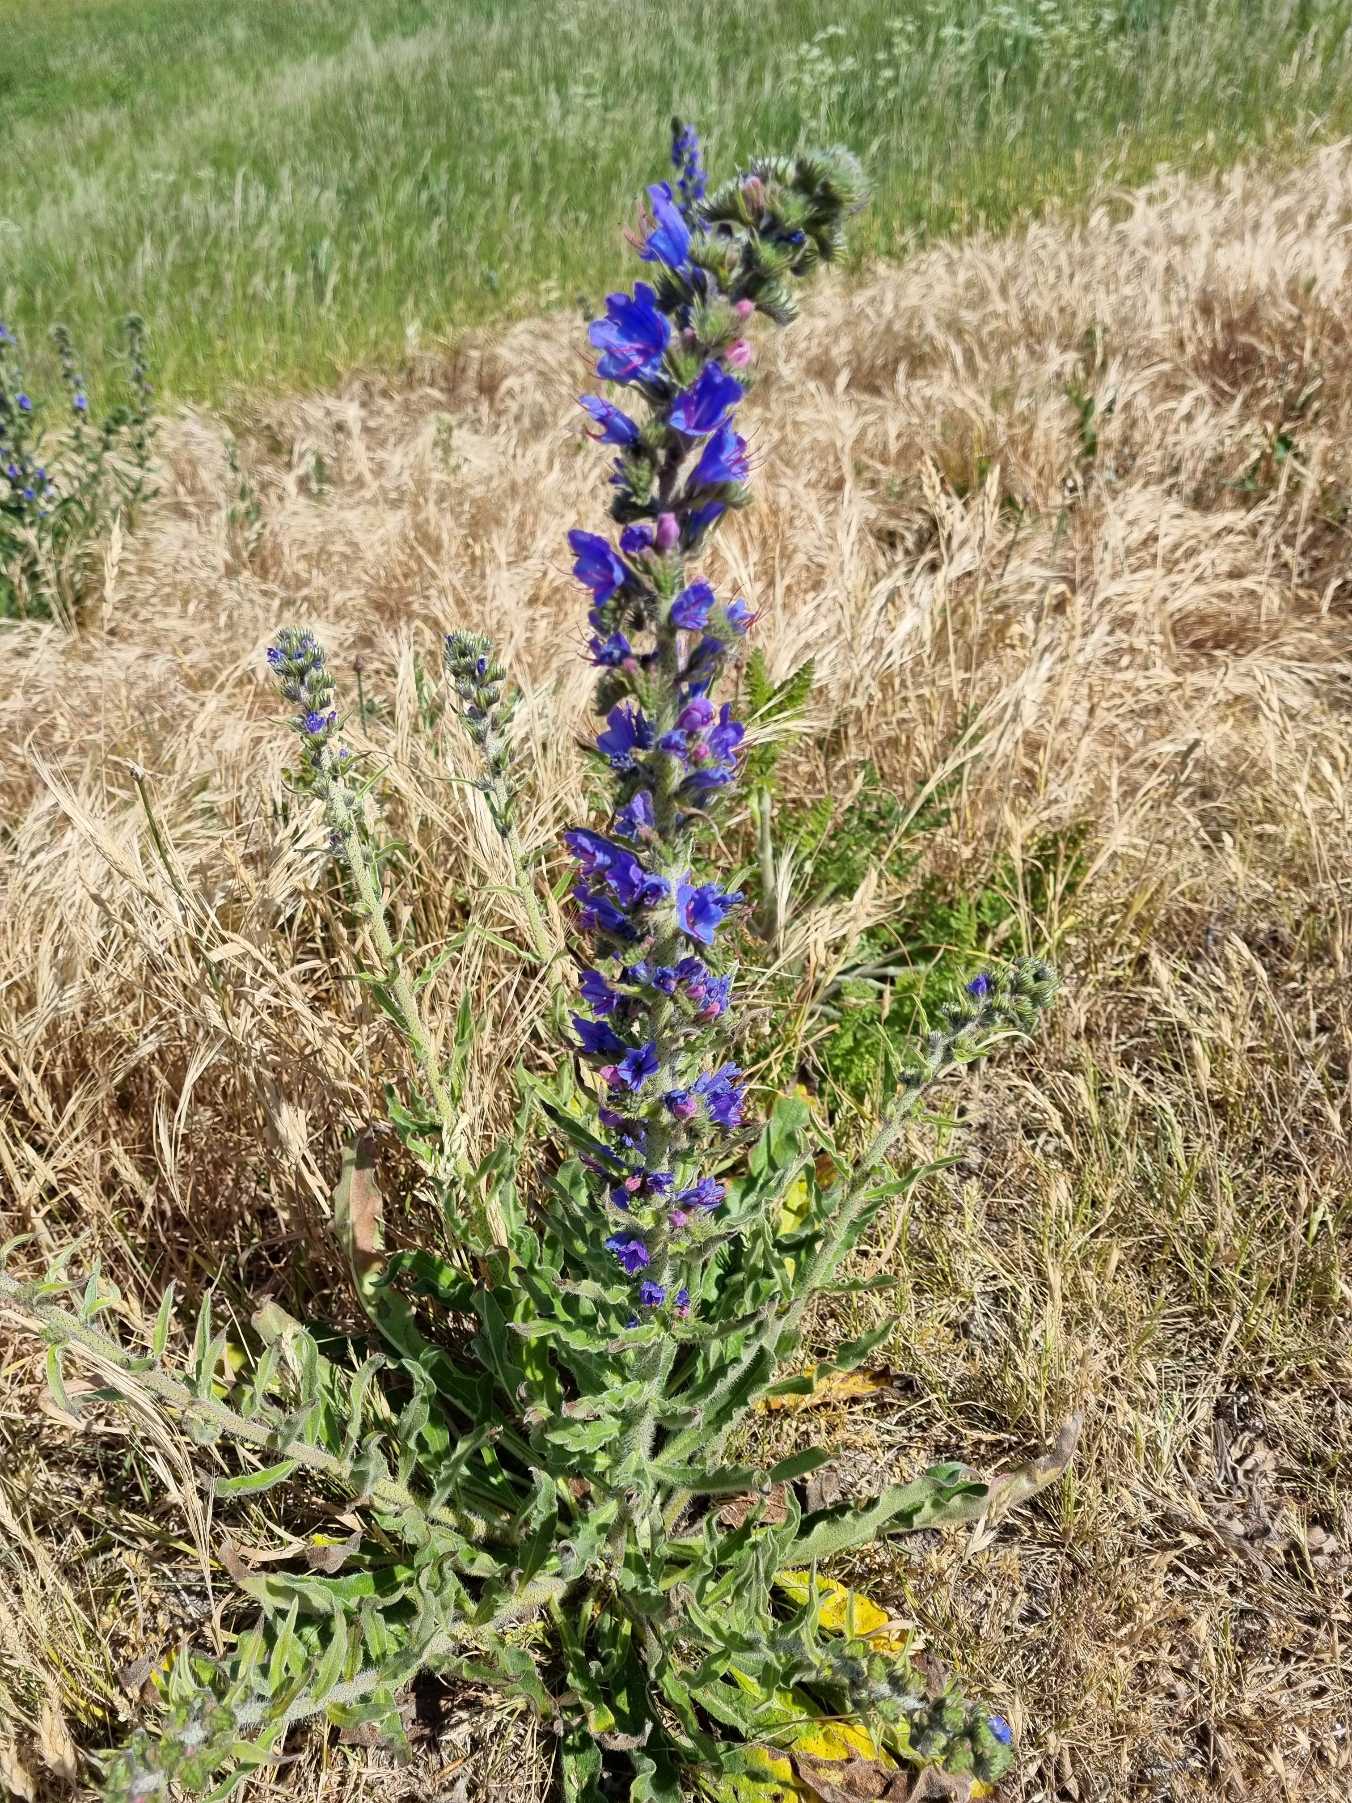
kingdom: Plantae
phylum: Tracheophyta
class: Magnoliopsida
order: Boraginales
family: Boraginaceae
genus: Echium
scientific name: Echium vulgare
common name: Slangehoved
